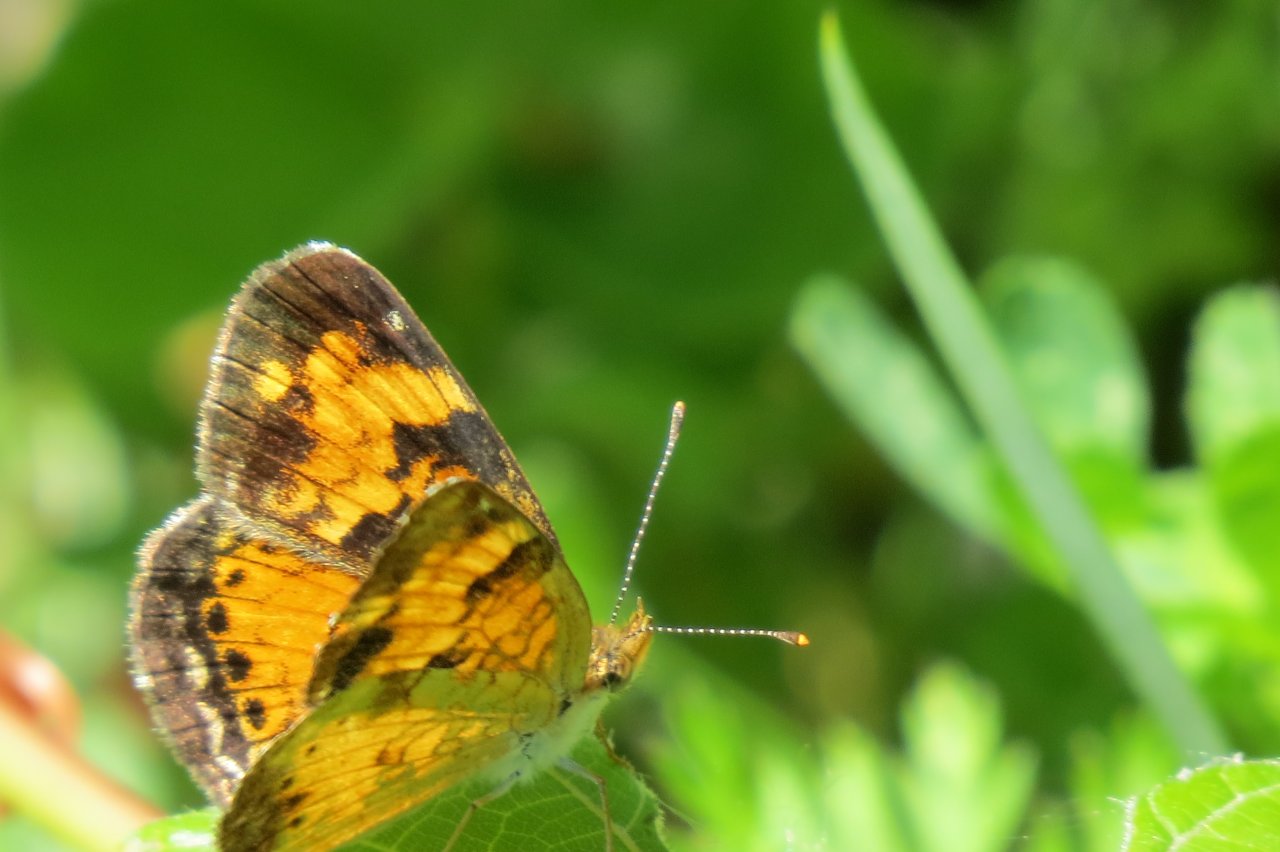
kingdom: Animalia
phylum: Arthropoda
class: Insecta
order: Lepidoptera
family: Nymphalidae
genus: Phyciodes
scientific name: Phyciodes tharos
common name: Northern Crescent
